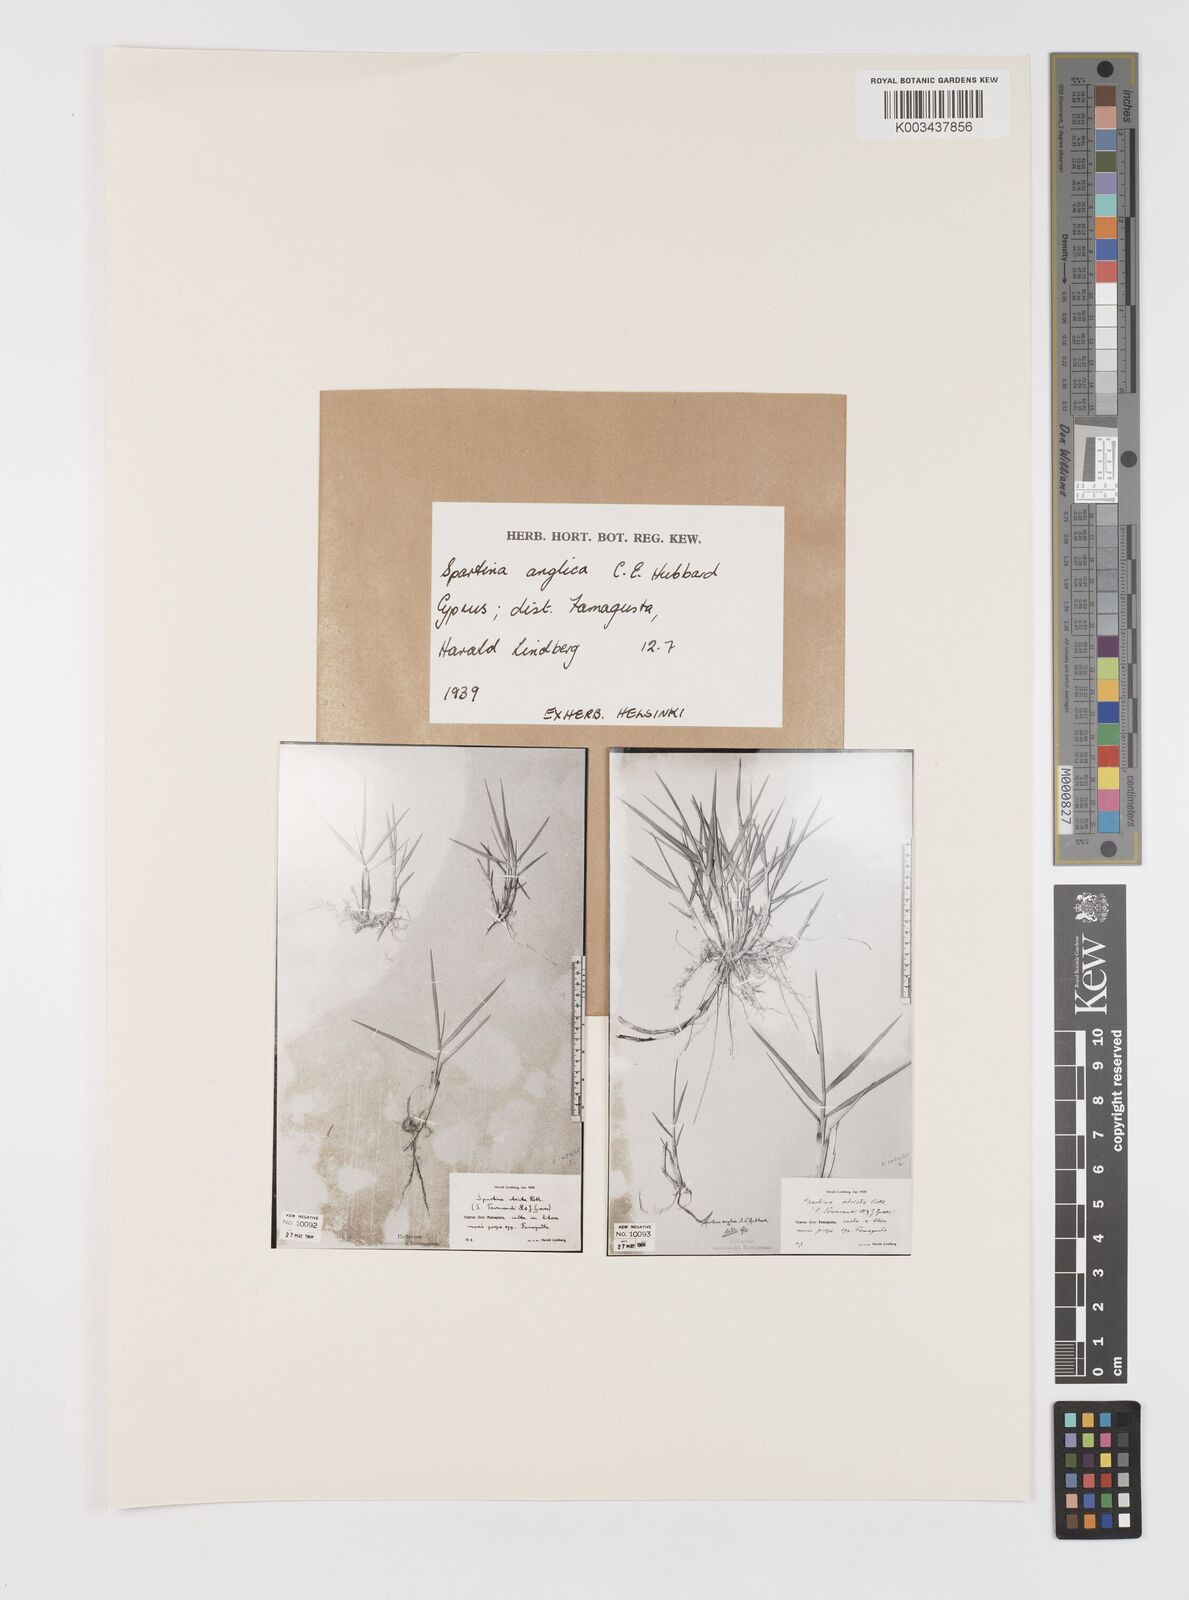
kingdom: Plantae
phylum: Tracheophyta
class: Liliopsida
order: Poales
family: Poaceae
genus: Sporobolus
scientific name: Sporobolus anglicus
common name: English cordgrass
